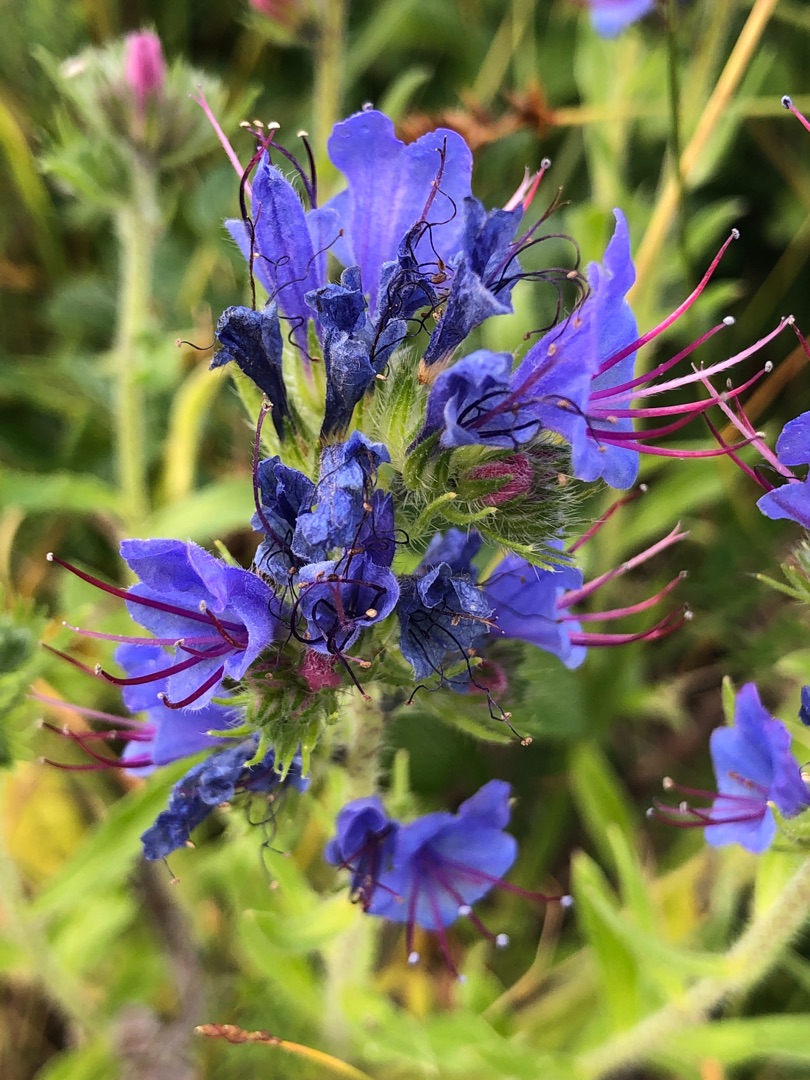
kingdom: Plantae
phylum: Tracheophyta
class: Magnoliopsida
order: Boraginales
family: Boraginaceae
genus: Echium
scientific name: Echium vulgare
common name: Slangehoved
